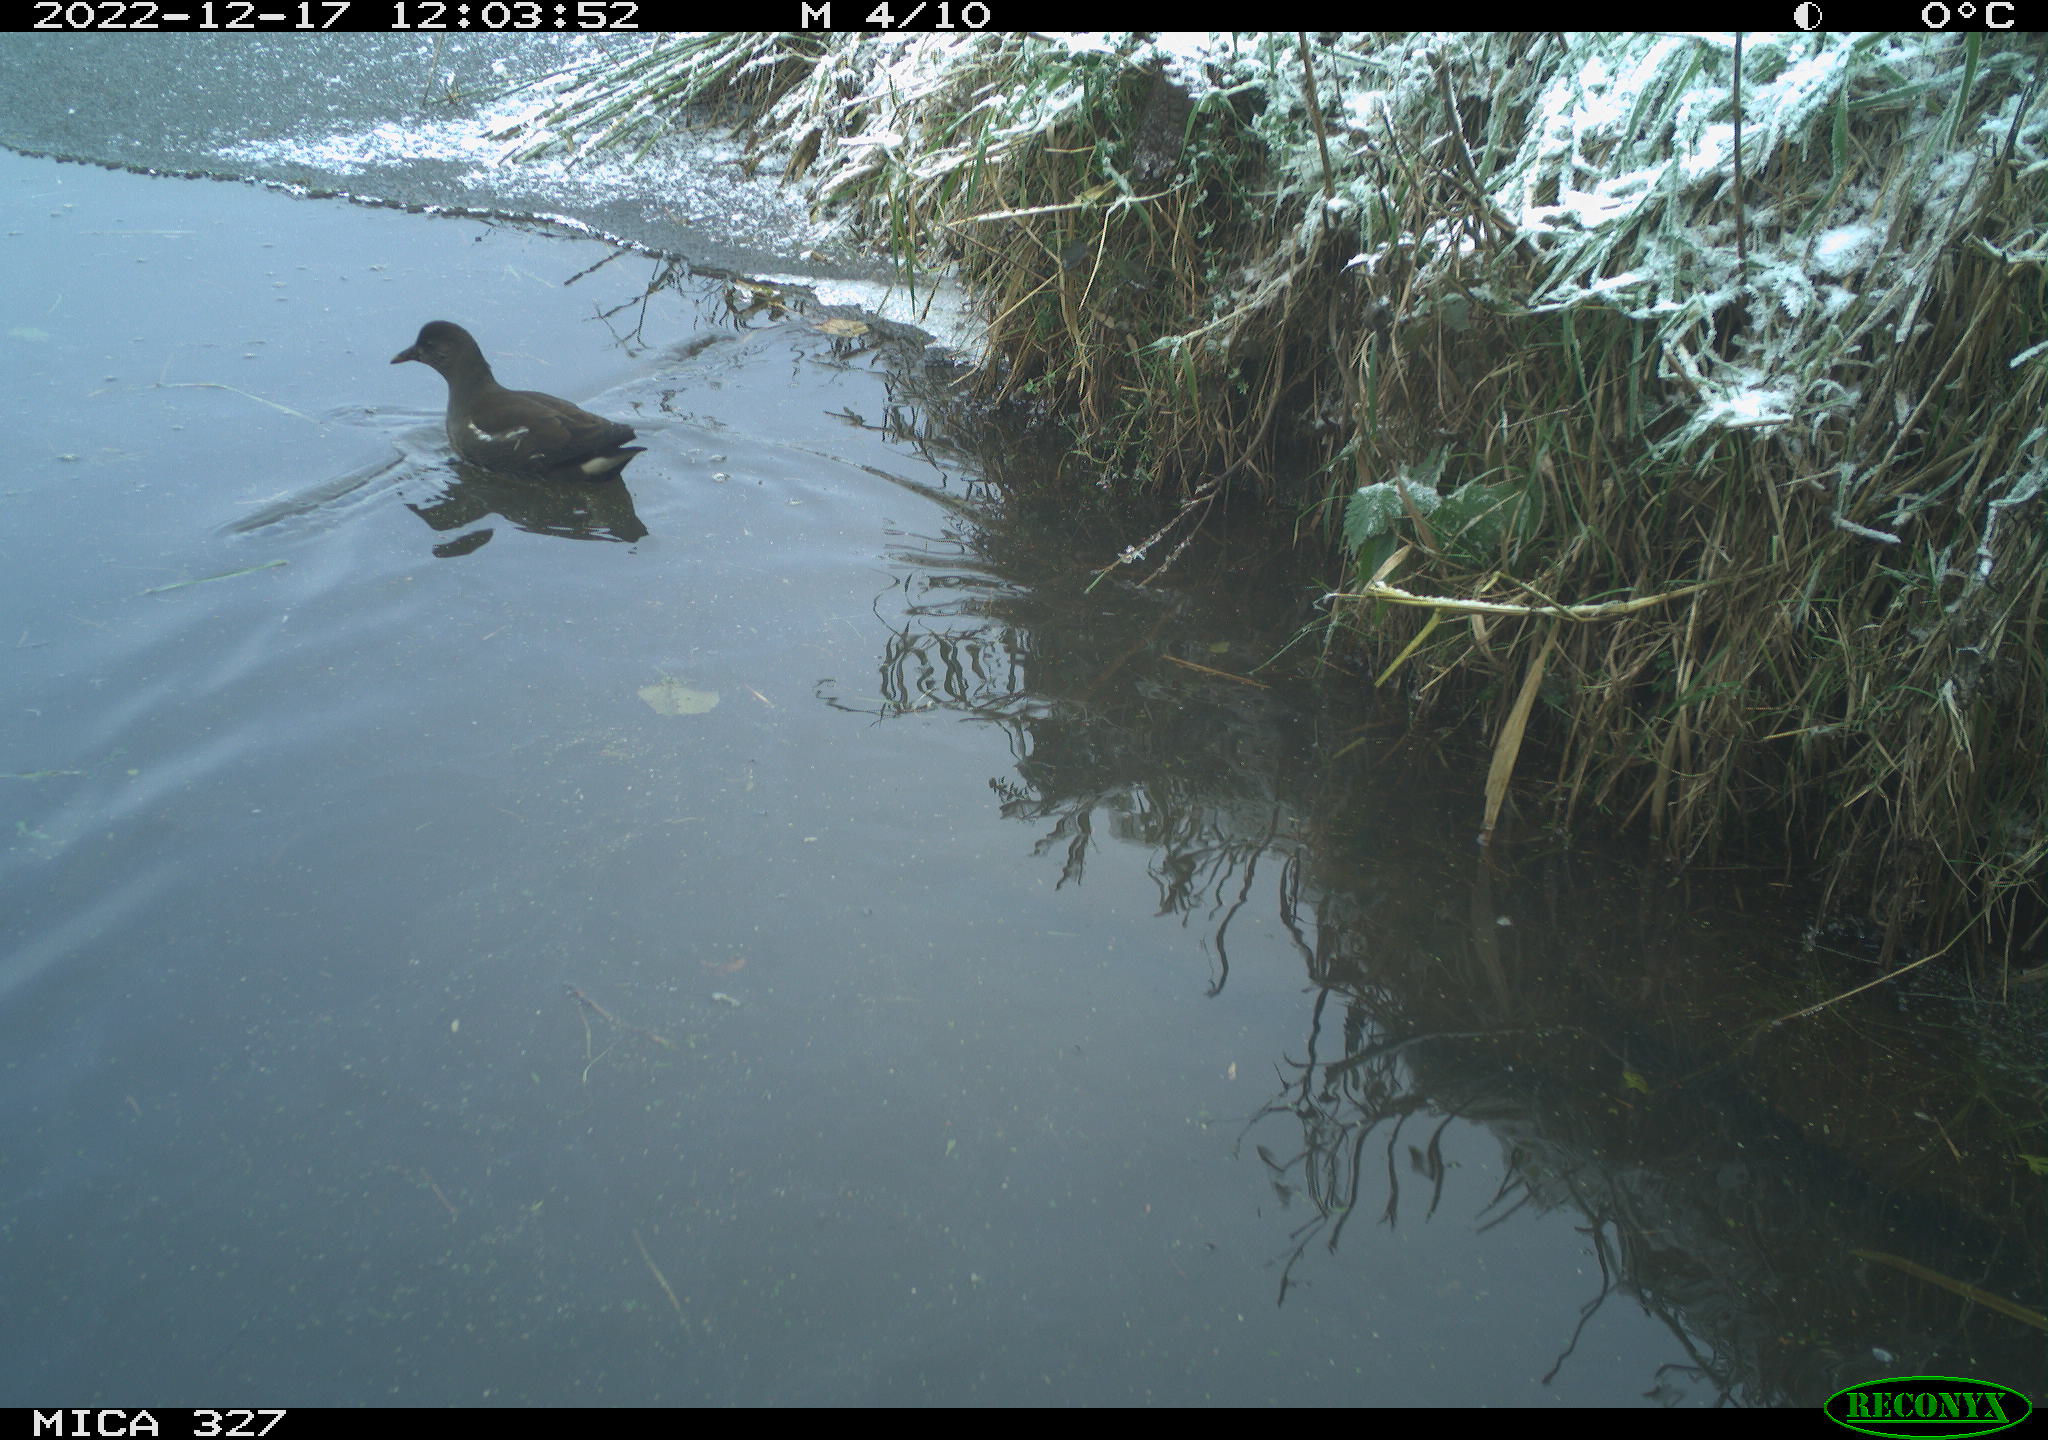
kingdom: Animalia
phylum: Chordata
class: Aves
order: Gruiformes
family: Rallidae
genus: Gallinula
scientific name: Gallinula chloropus
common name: Common moorhen
